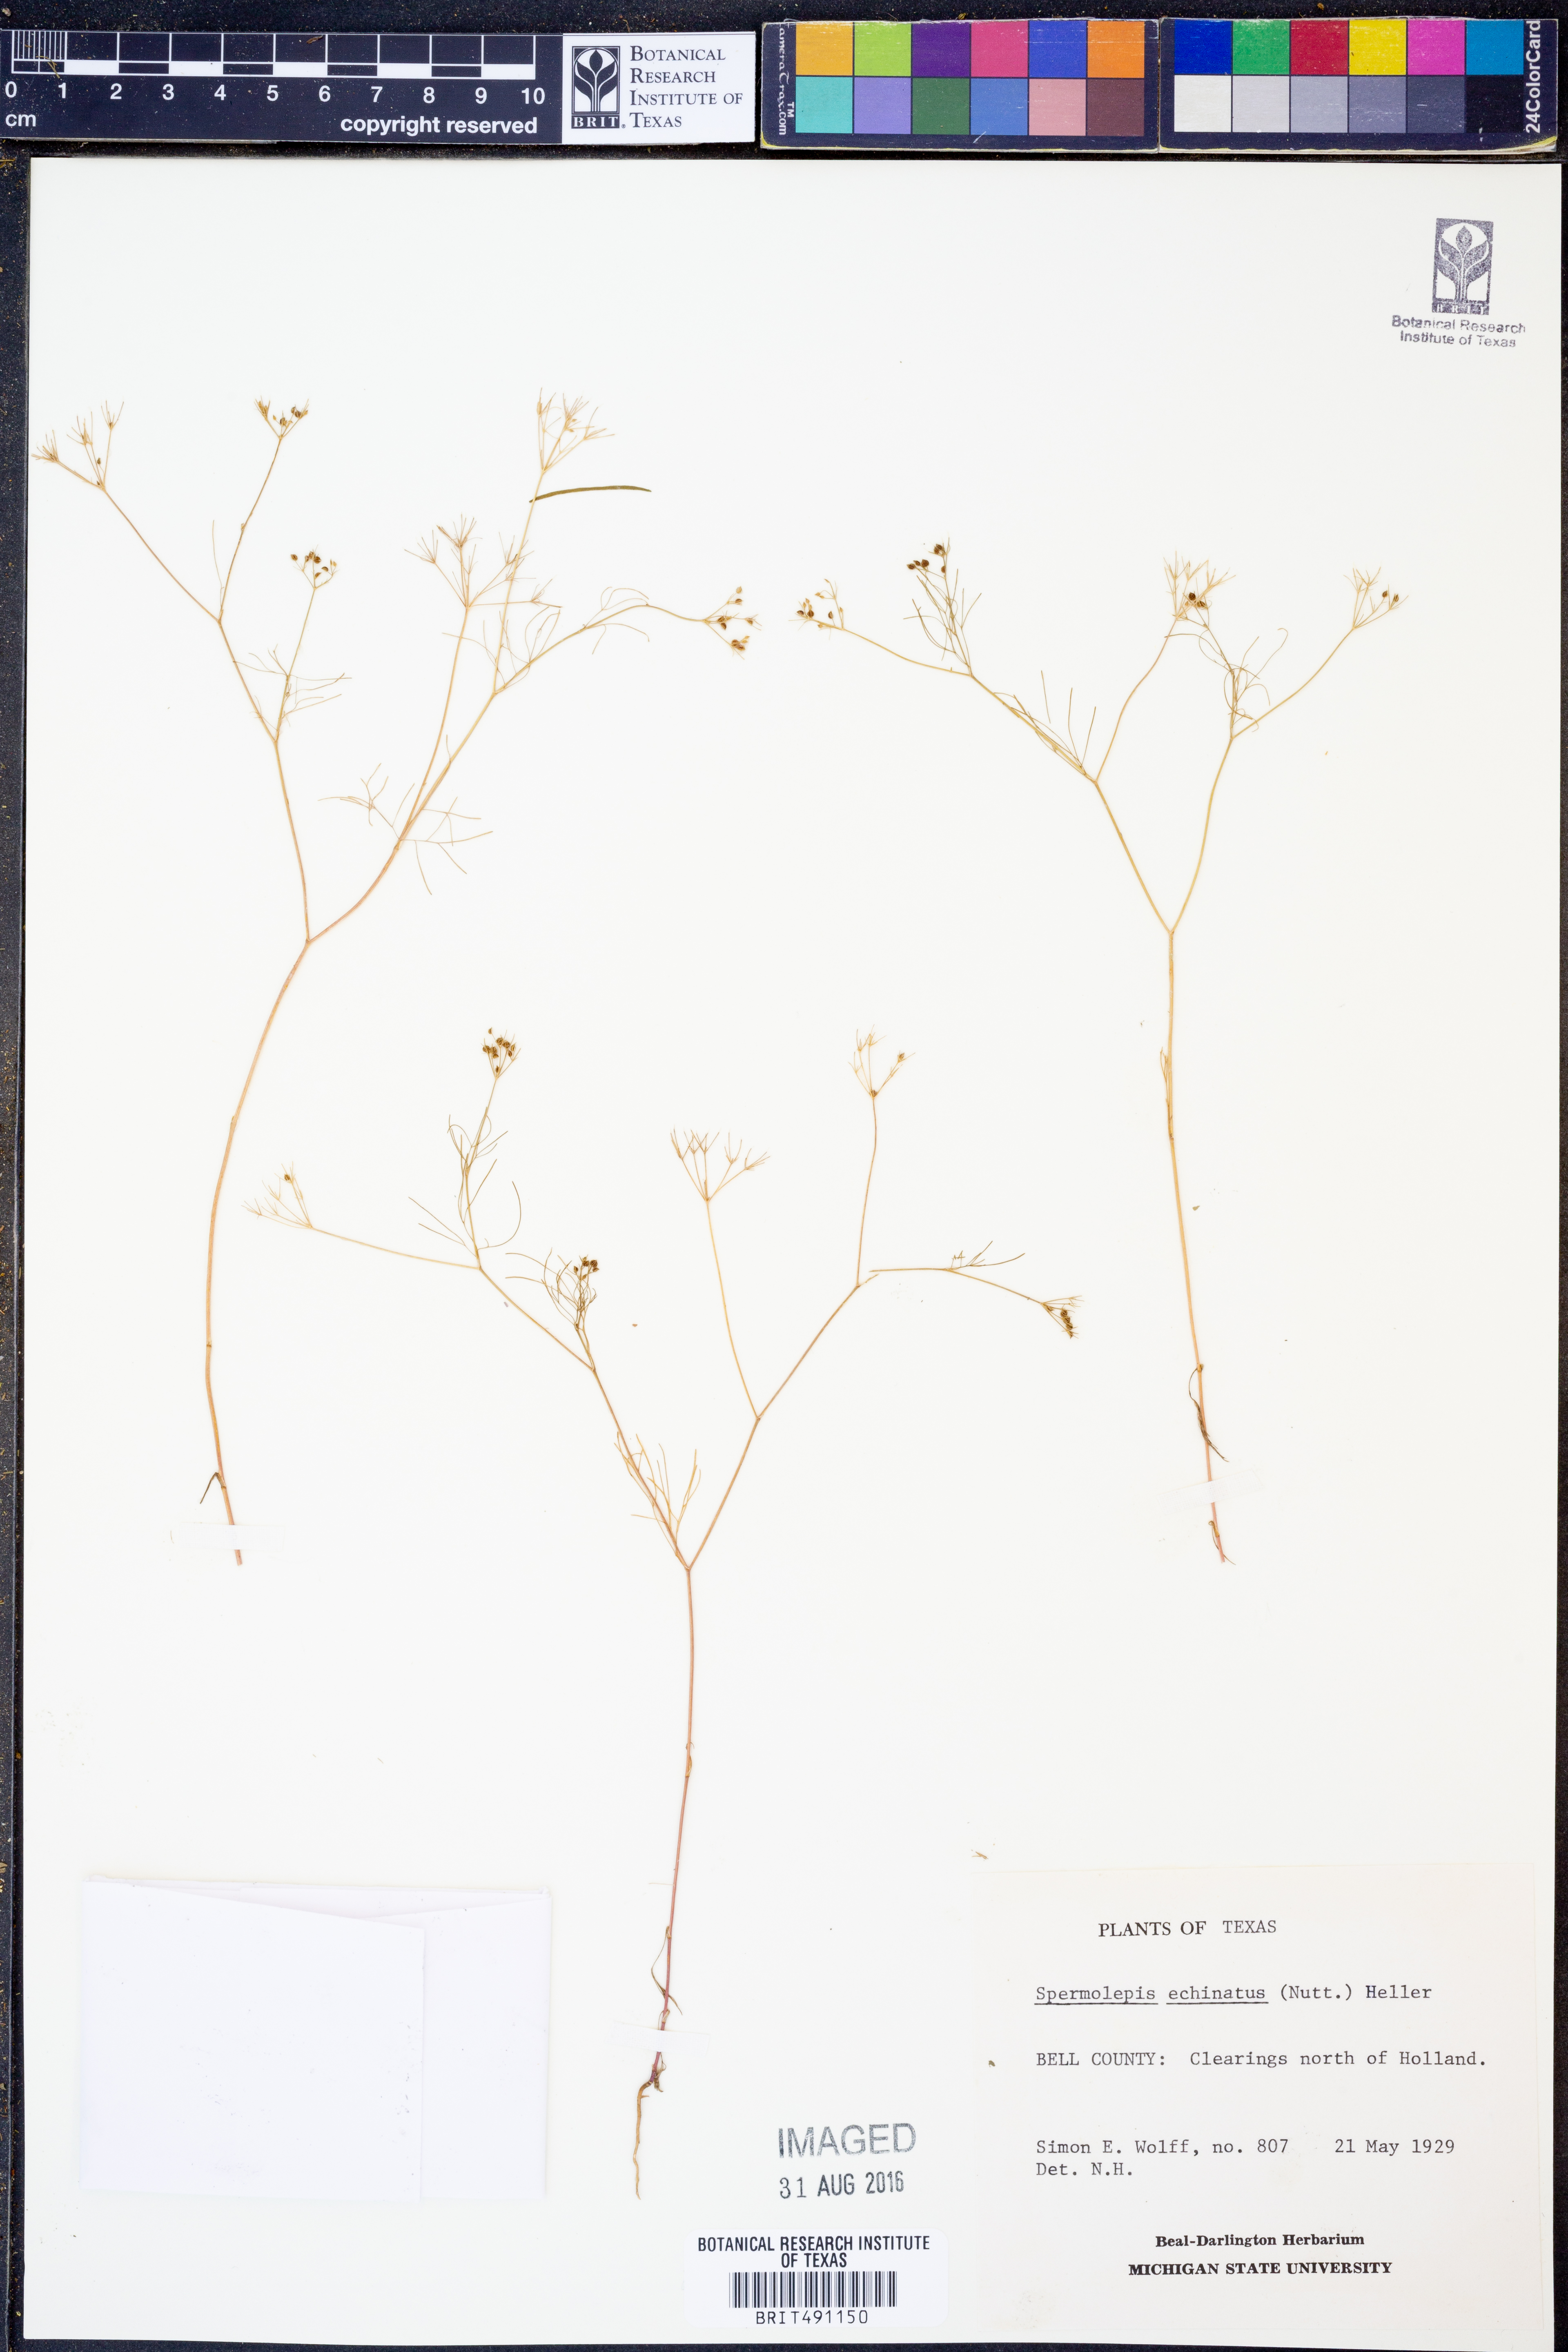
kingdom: Plantae
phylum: Tracheophyta
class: Magnoliopsida
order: Apiales
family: Apiaceae
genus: Spermolepis
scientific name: Spermolepis echinata
